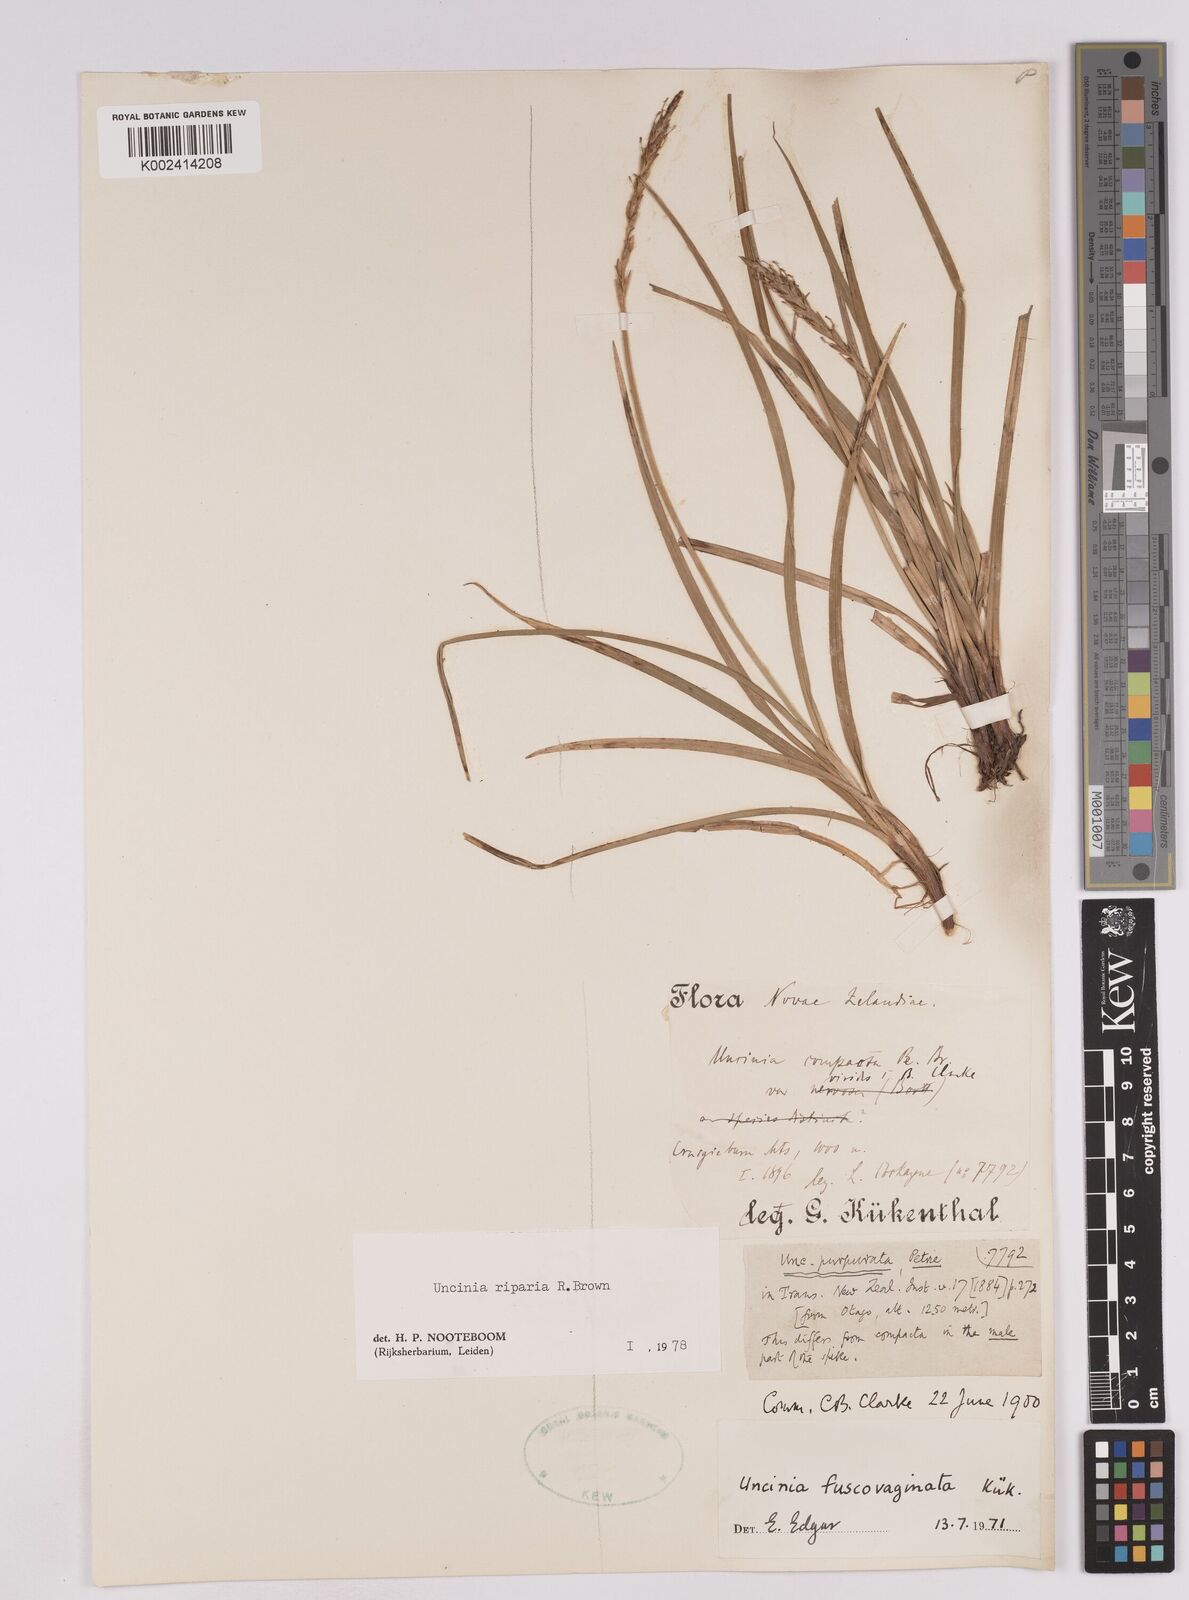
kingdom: Plantae
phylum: Tracheophyta
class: Liliopsida
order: Poales
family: Cyperaceae
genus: Carex
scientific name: Carex penalpina
